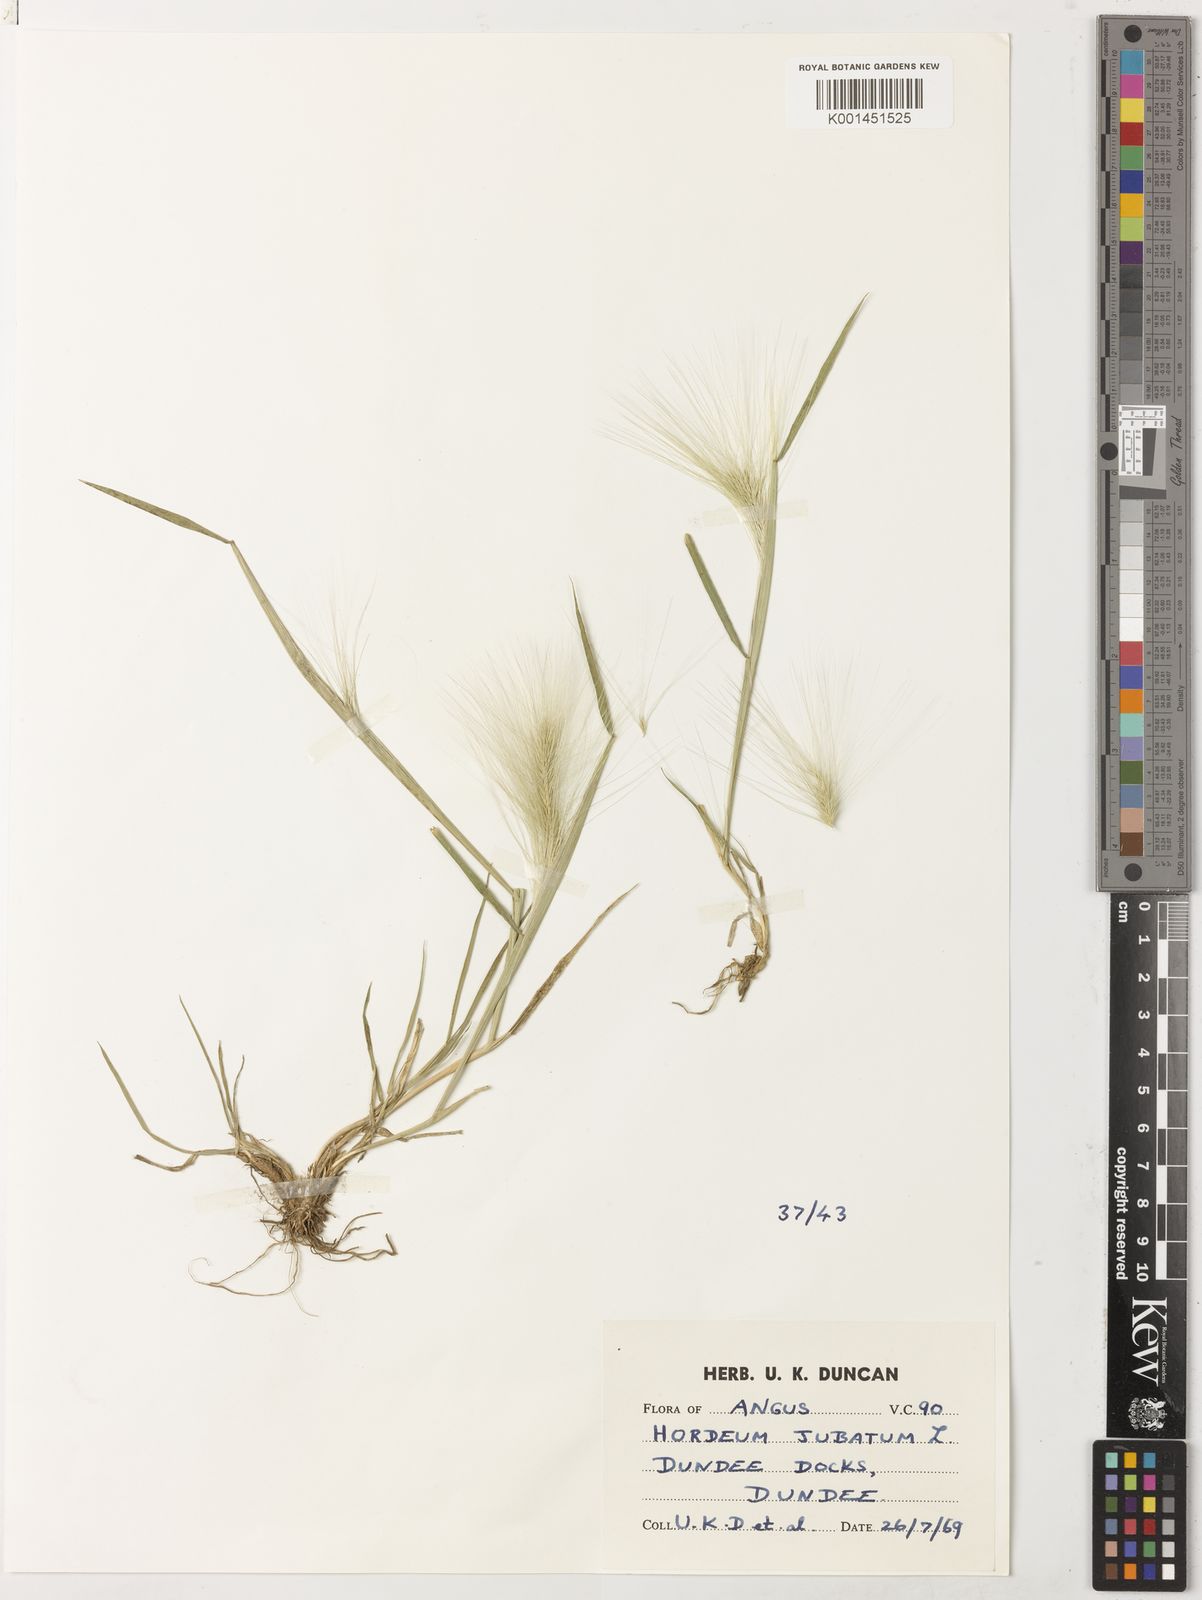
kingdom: Plantae
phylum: Tracheophyta
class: Liliopsida
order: Poales
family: Poaceae
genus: Hordeum
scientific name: Hordeum jubatum
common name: Foxtail barley
